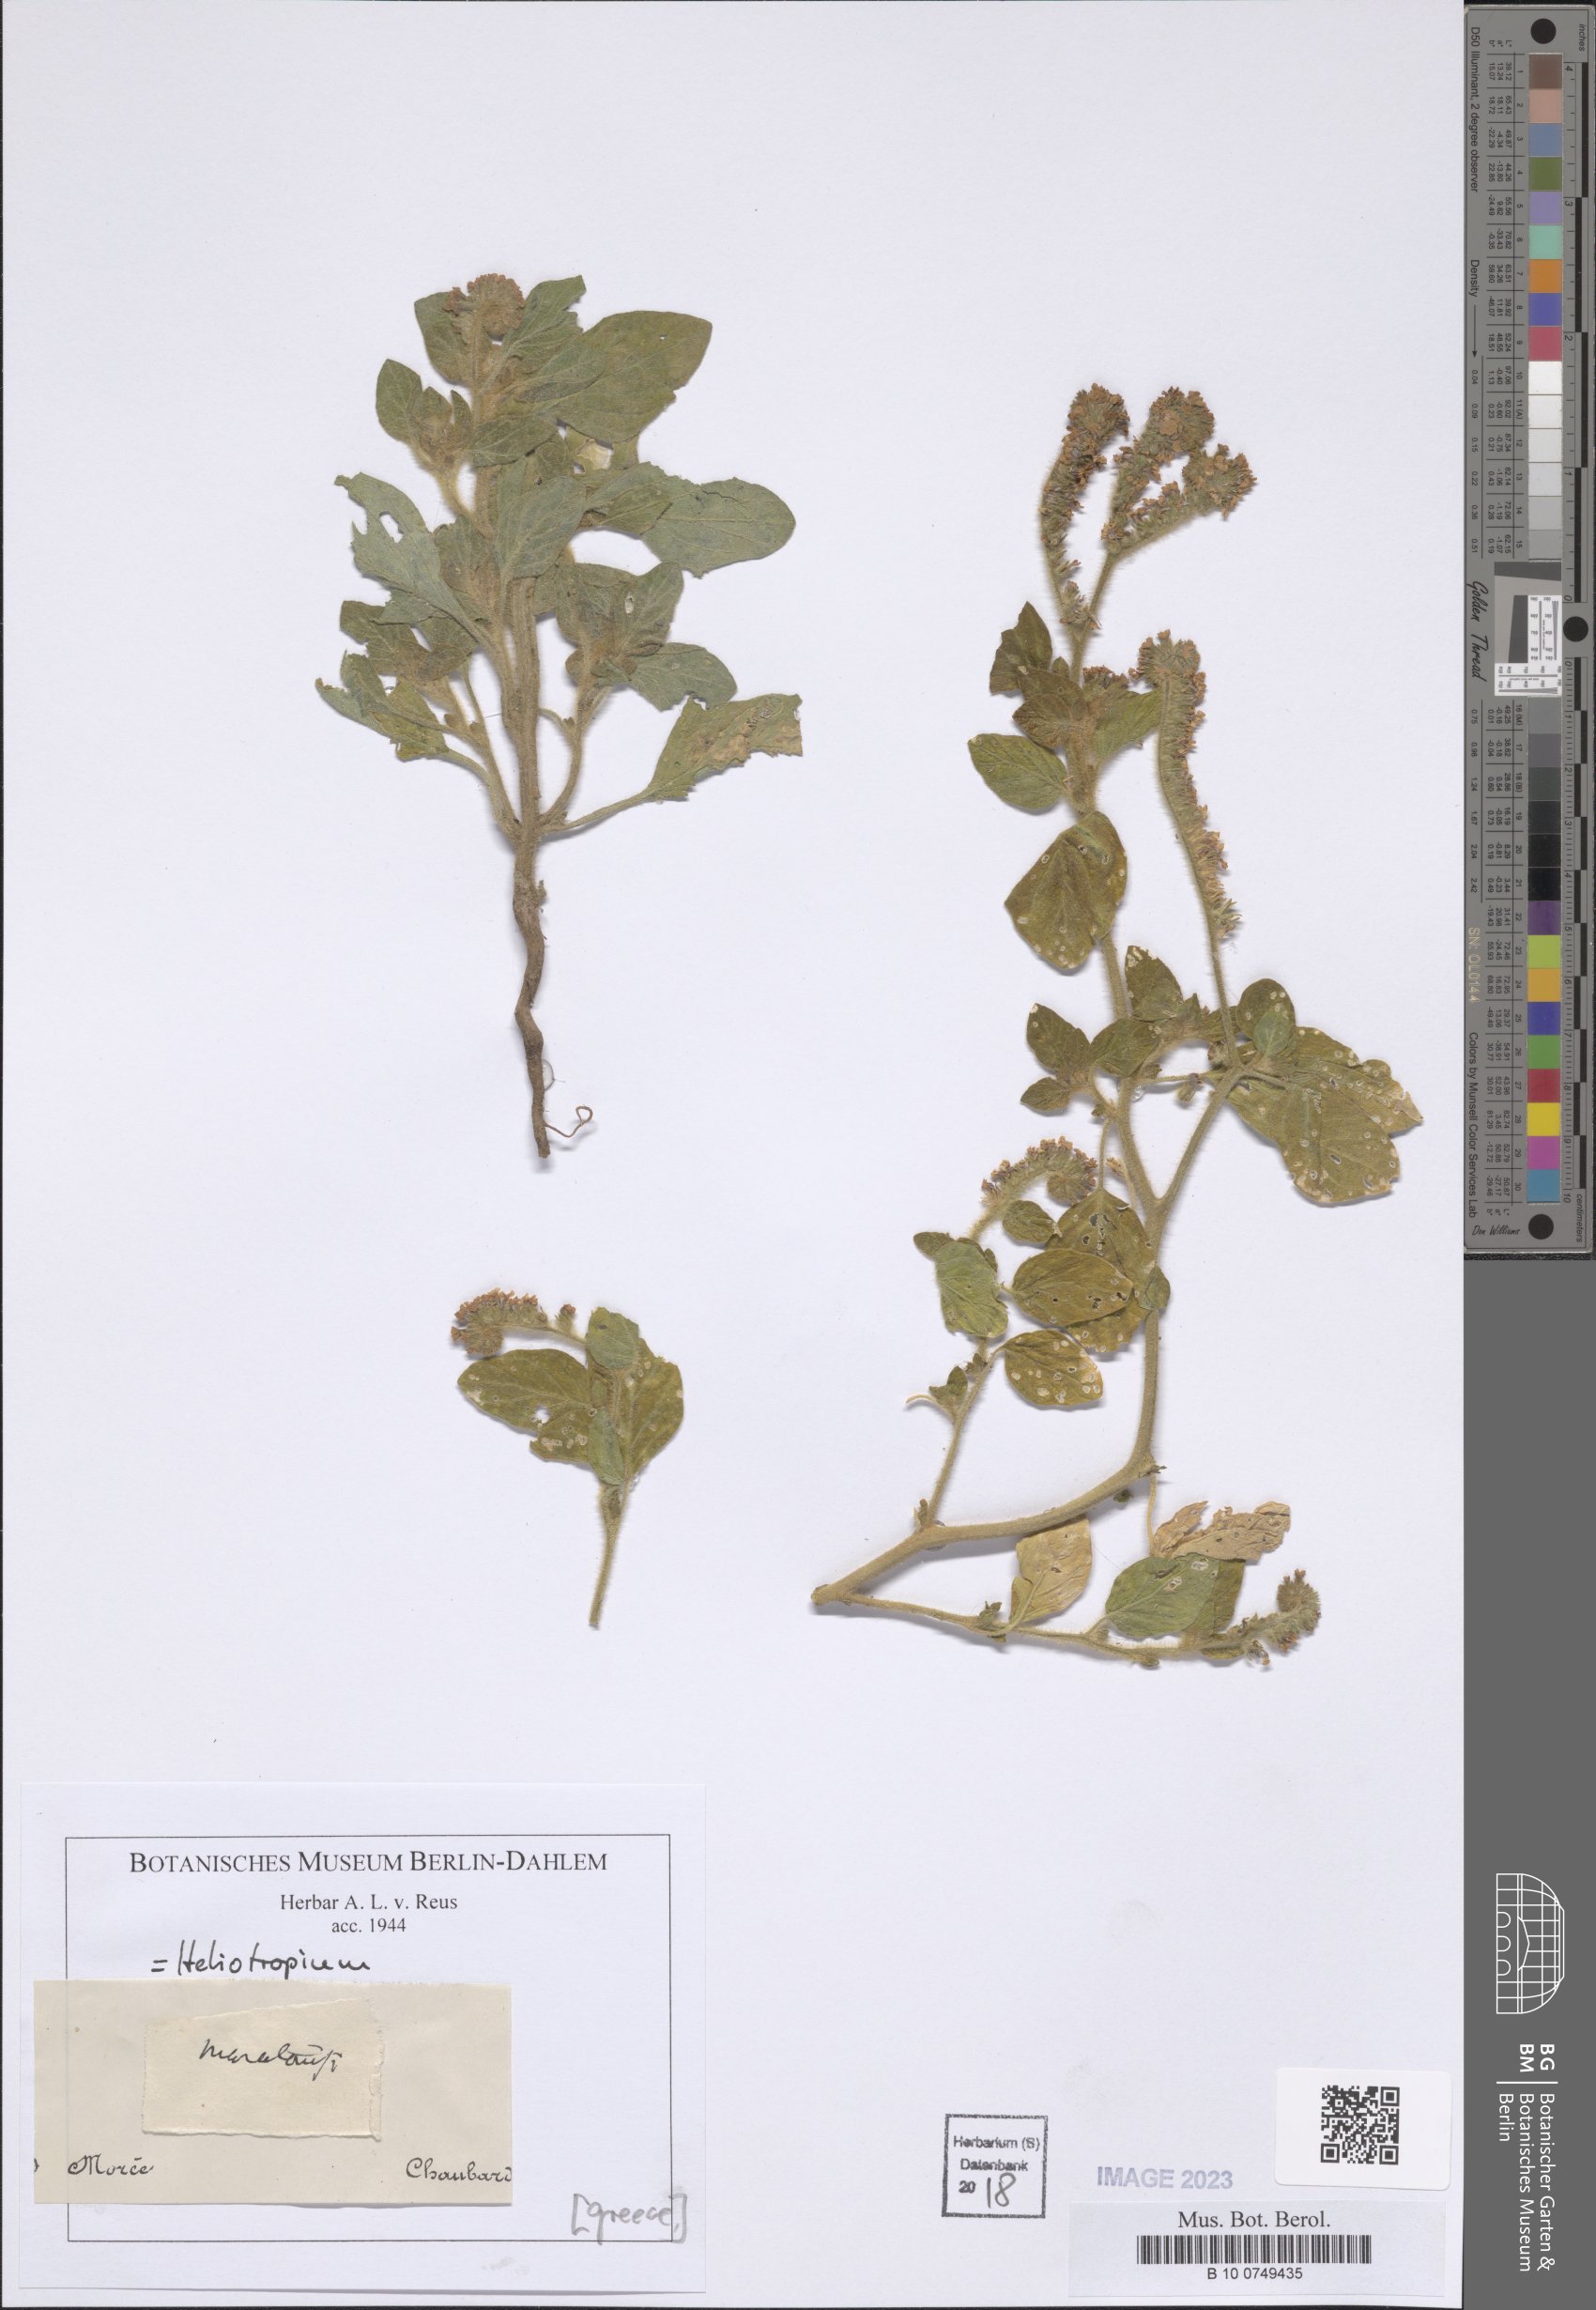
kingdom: Plantae
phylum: Tracheophyta
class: Magnoliopsida
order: Boraginales
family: Heliotropiaceae
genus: Heliotropium
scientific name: Heliotropium
